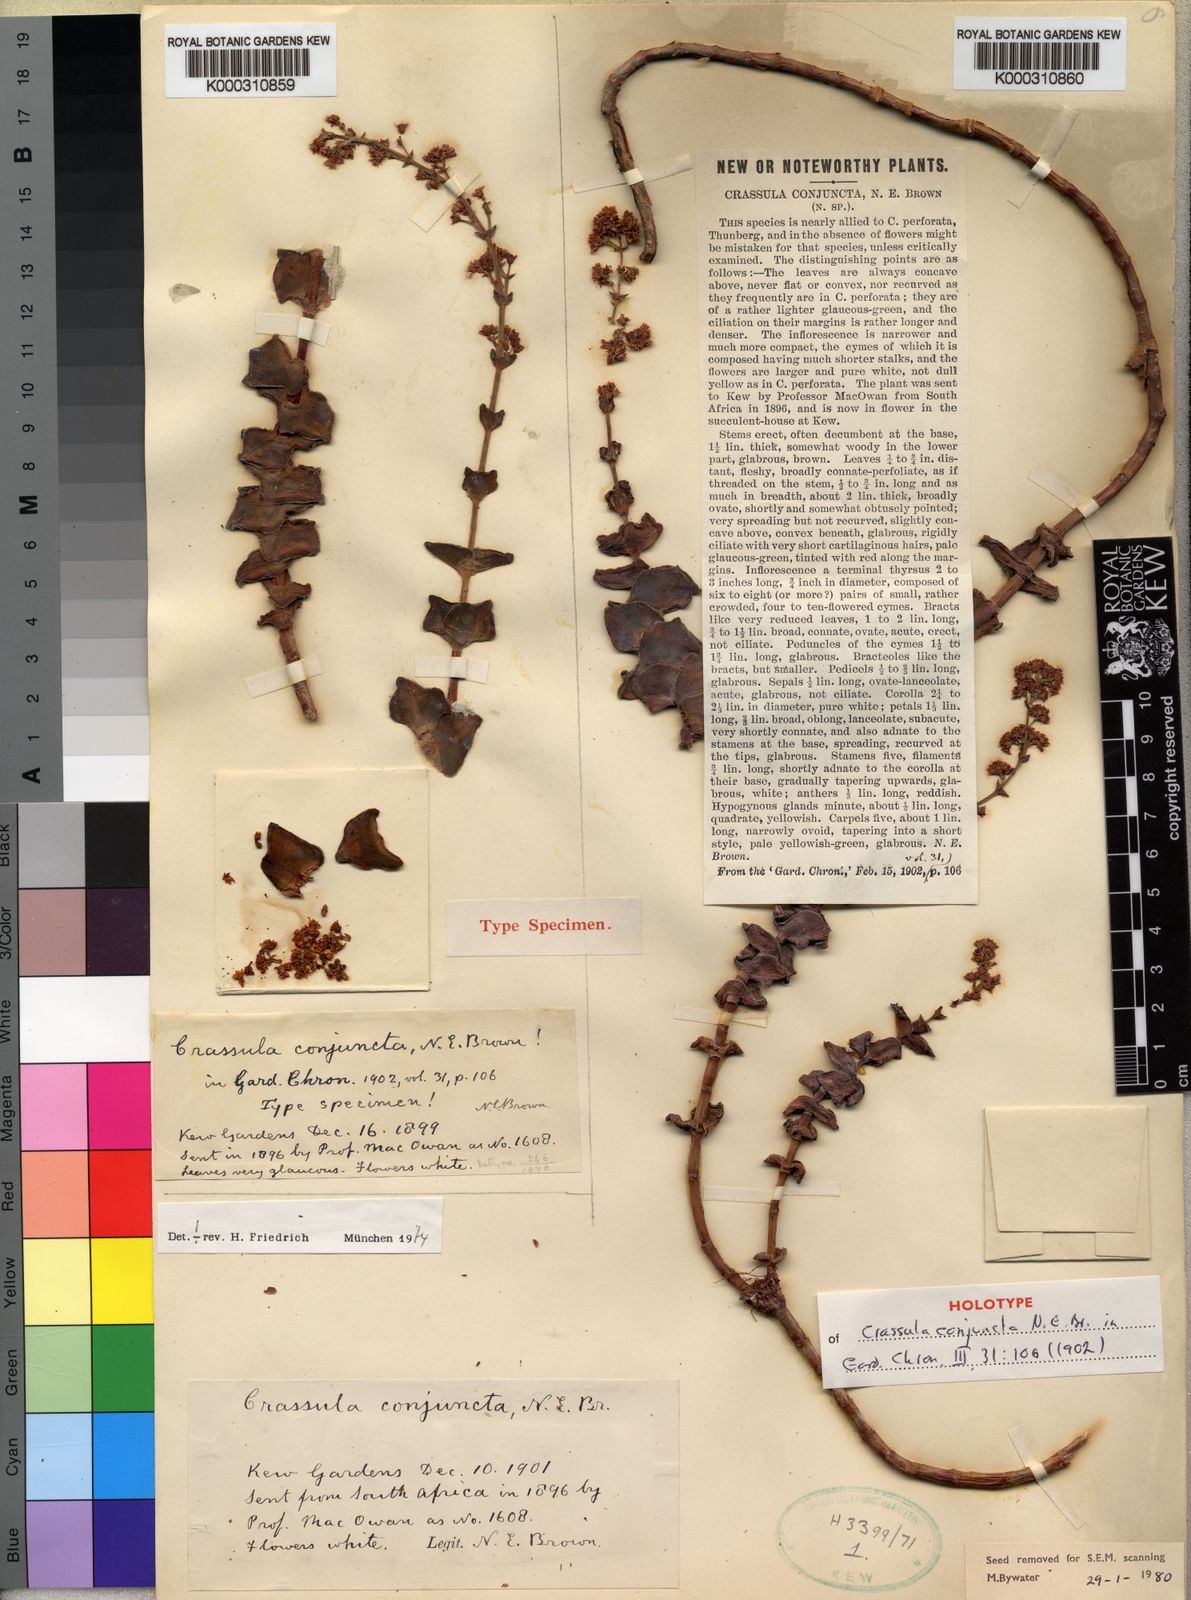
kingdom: Plantae
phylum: Tracheophyta
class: Magnoliopsida
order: Saxifragales
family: Crassulaceae
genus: Crassula
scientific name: Crassula perforata
